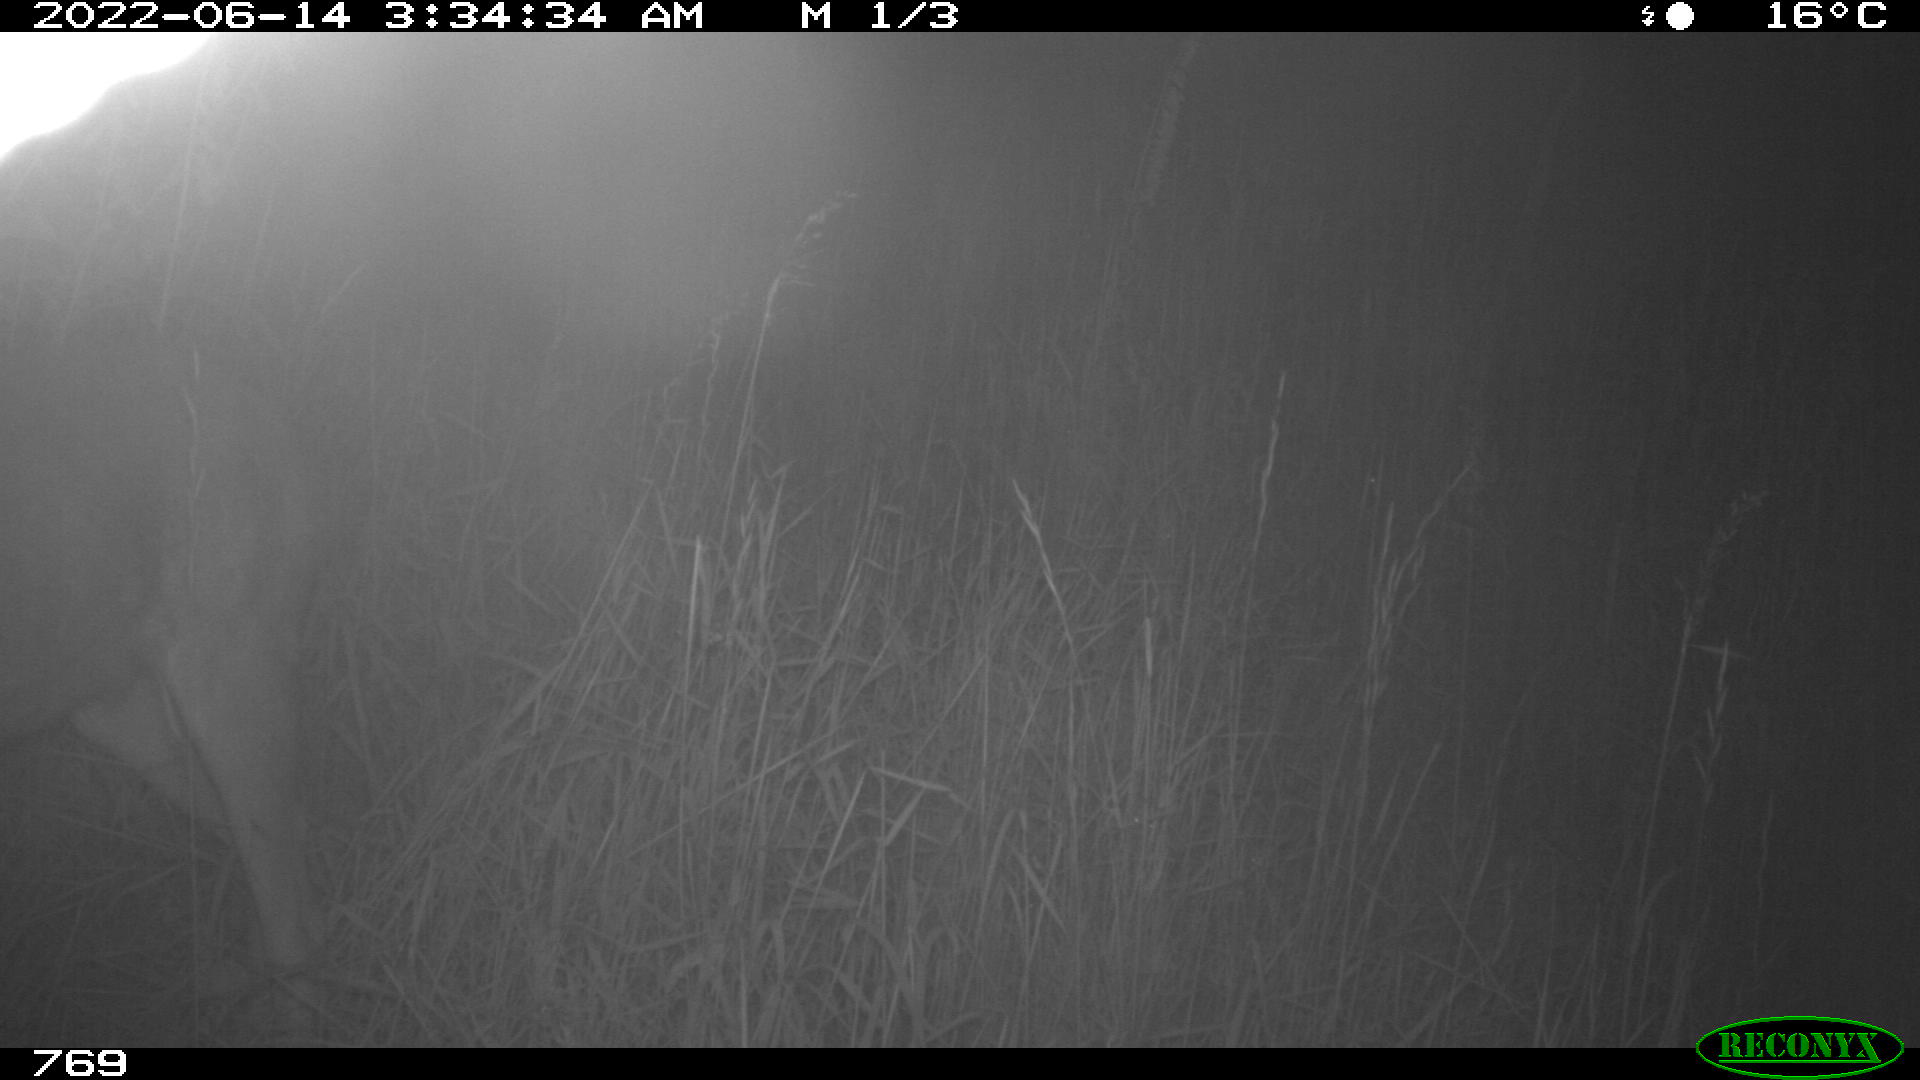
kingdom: Animalia
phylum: Chordata
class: Mammalia
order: Artiodactyla
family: Cervidae
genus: Capreolus
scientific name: Capreolus capreolus
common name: Western roe deer
